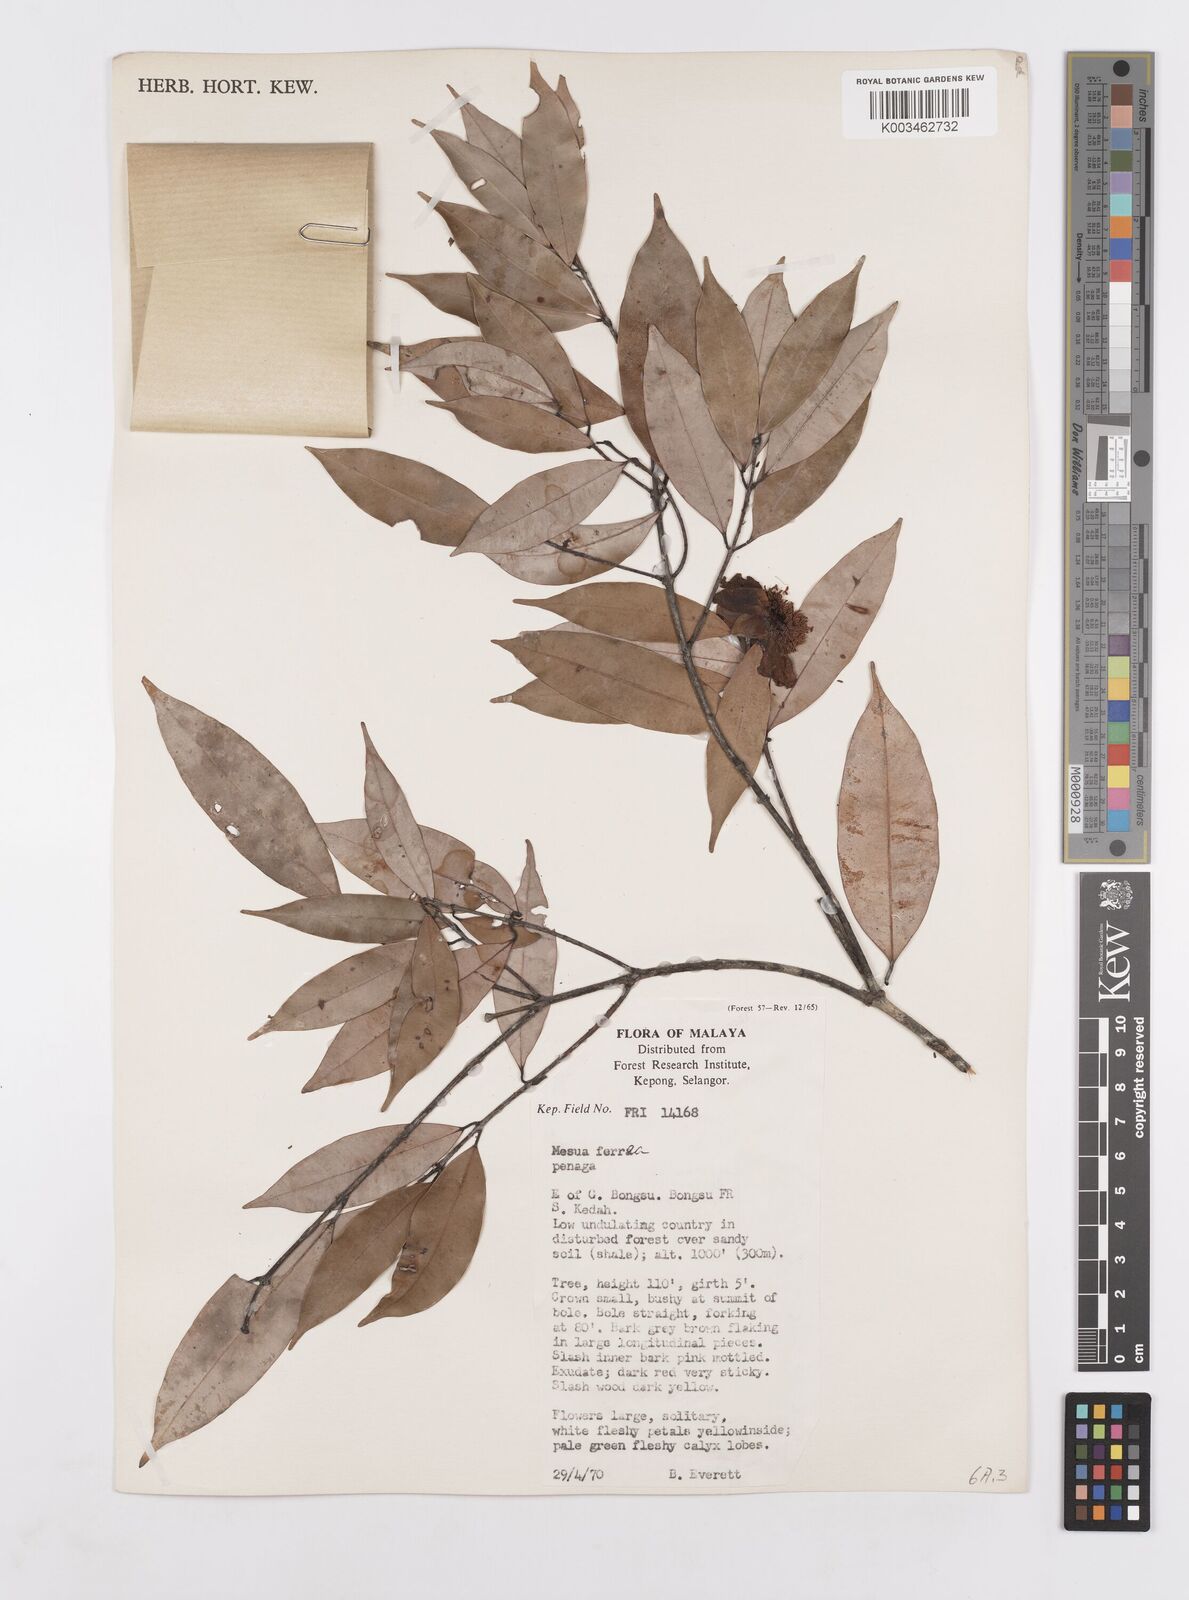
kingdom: Plantae
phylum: Tracheophyta
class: Magnoliopsida
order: Malpighiales
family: Calophyllaceae
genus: Mesua
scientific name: Mesua ferrea
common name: Mesua
